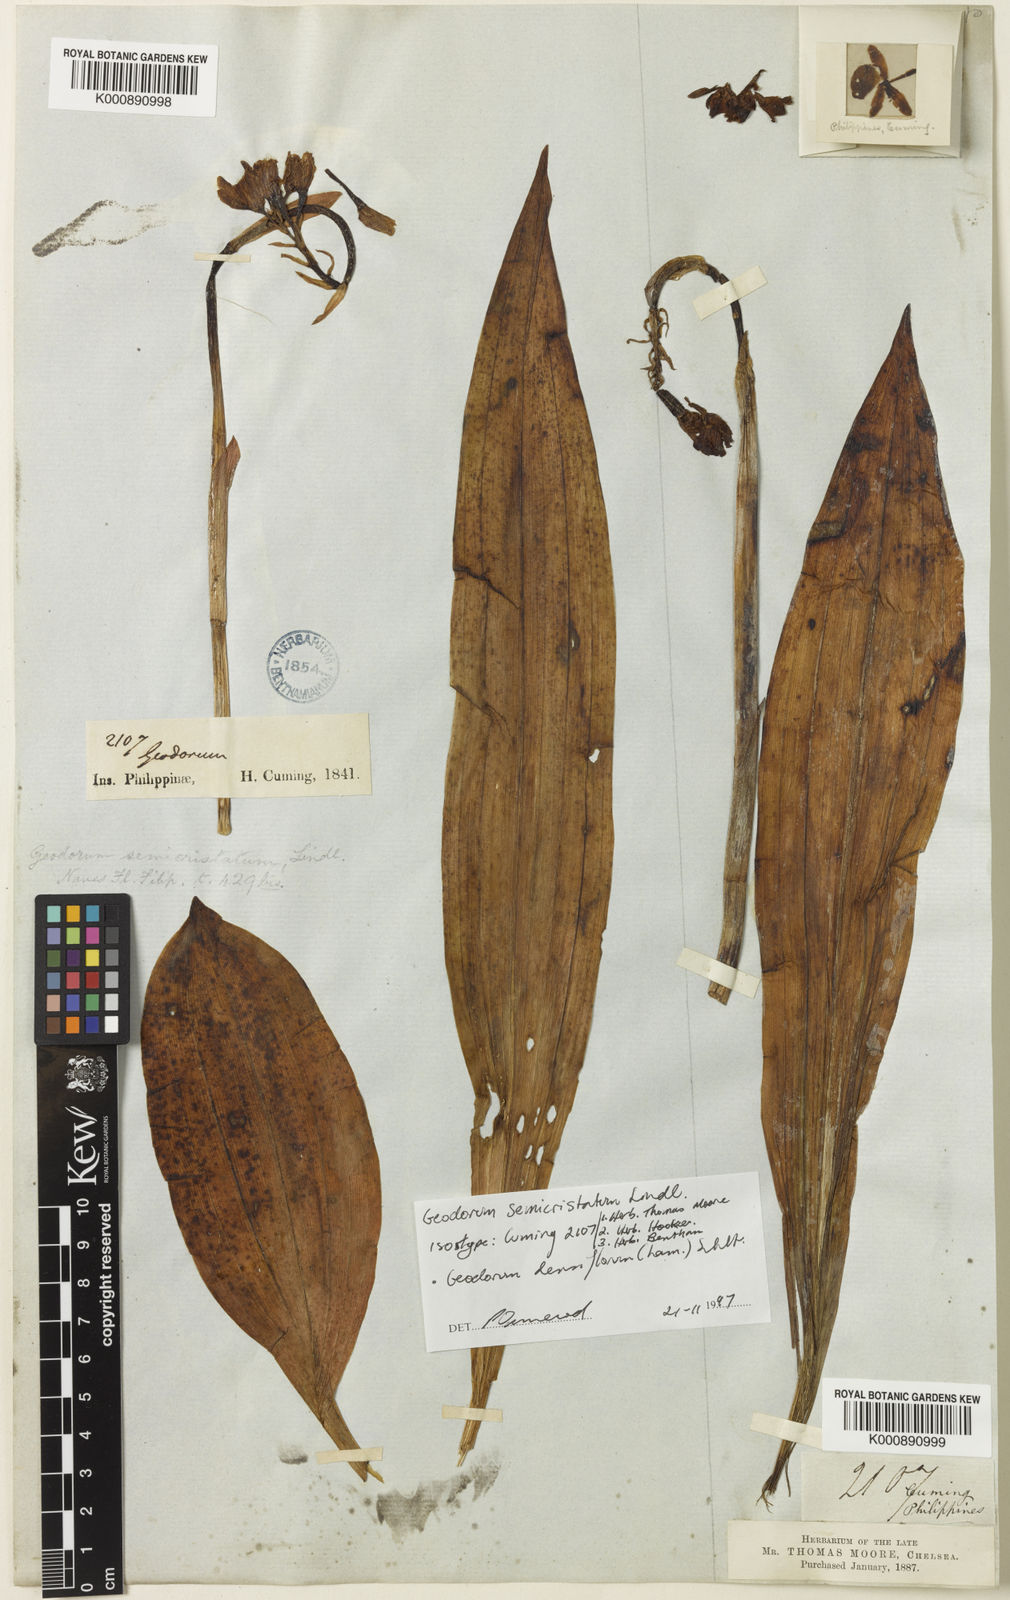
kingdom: Plantae
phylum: Tracheophyta
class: Liliopsida
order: Asparagales
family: Orchidaceae
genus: Eulophia
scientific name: Eulophia cernua
